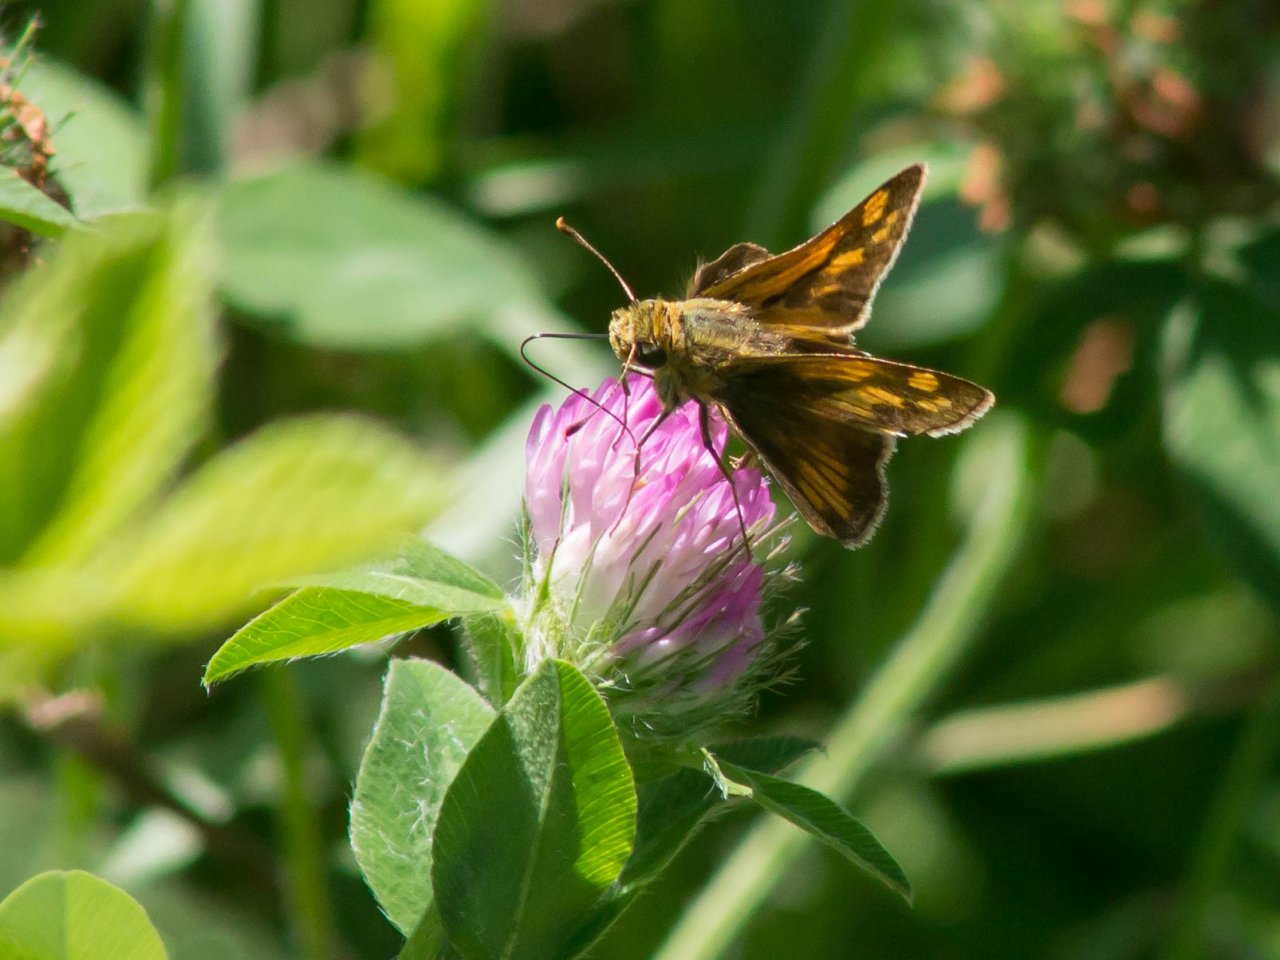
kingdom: Animalia
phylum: Arthropoda
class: Insecta
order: Lepidoptera
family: Hesperiidae
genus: Polites
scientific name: Polites coras
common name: Peck's Skipper
